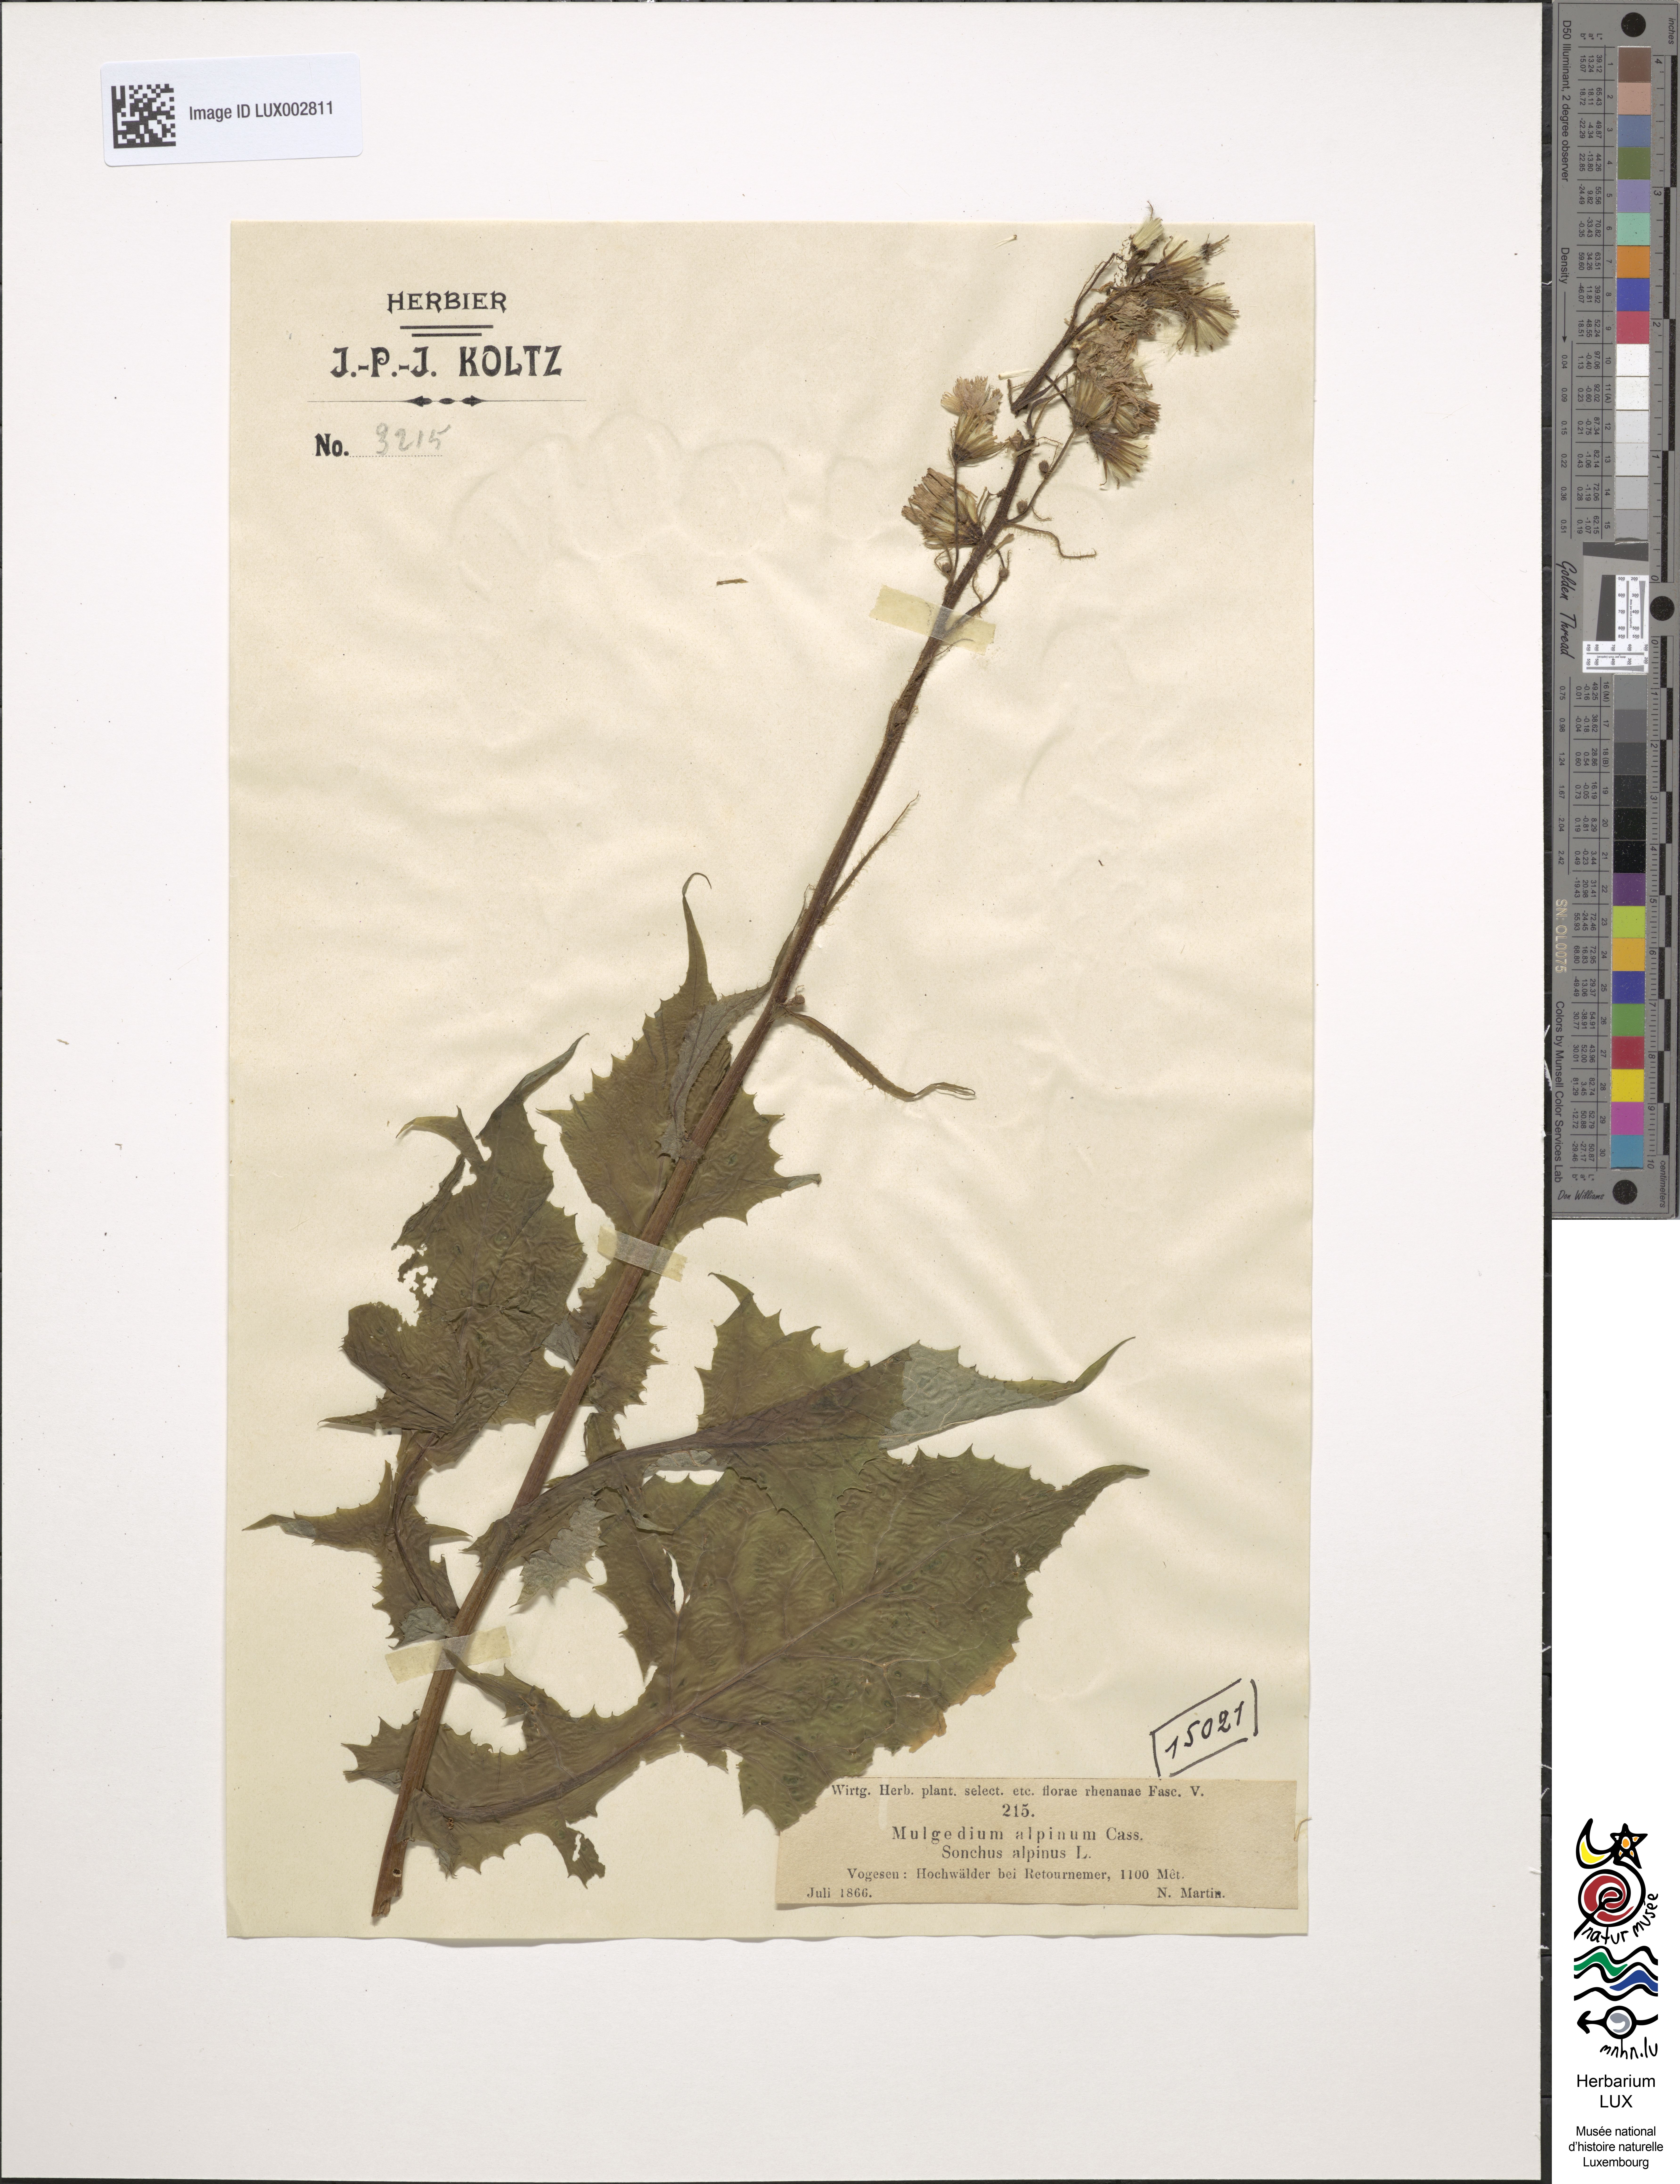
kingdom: Plantae
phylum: Tracheophyta
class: Magnoliopsida
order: Asterales
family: Asteraceae
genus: Cicerbita
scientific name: Cicerbita alpina
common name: Alpine blue-sow-thistle
